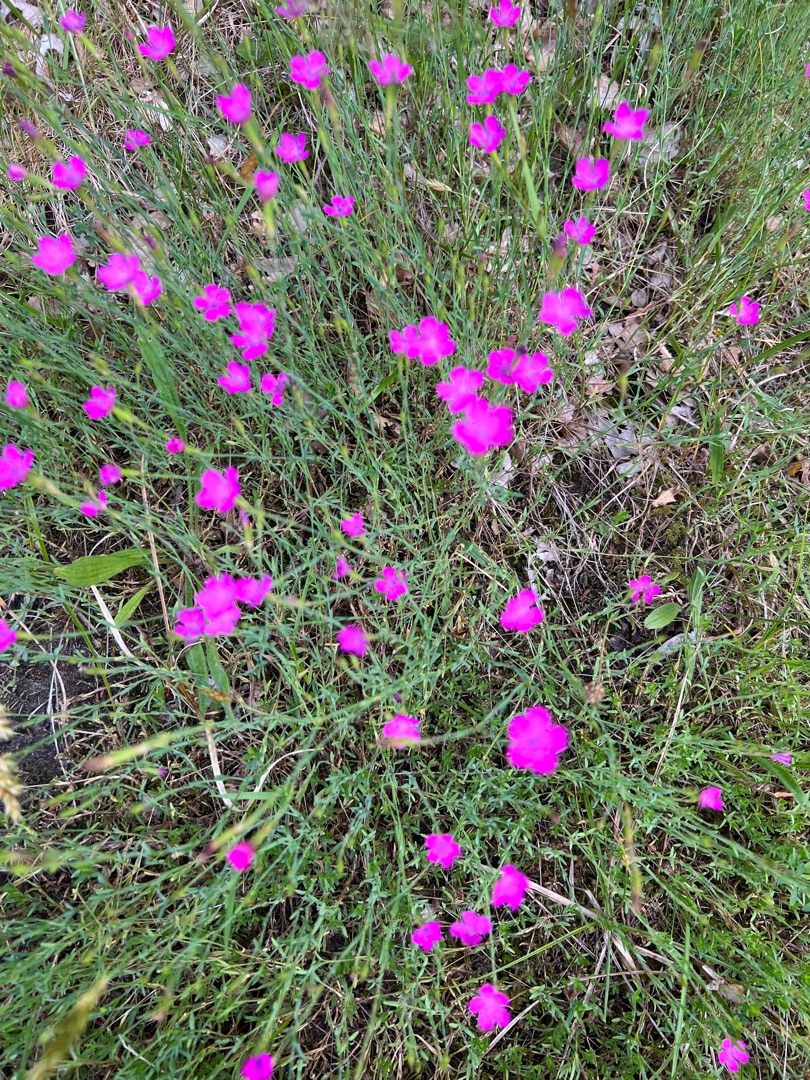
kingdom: Plantae
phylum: Tracheophyta
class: Magnoliopsida
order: Caryophyllales
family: Caryophyllaceae
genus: Dianthus
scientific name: Dianthus deltoides
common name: Bakke-nellike
